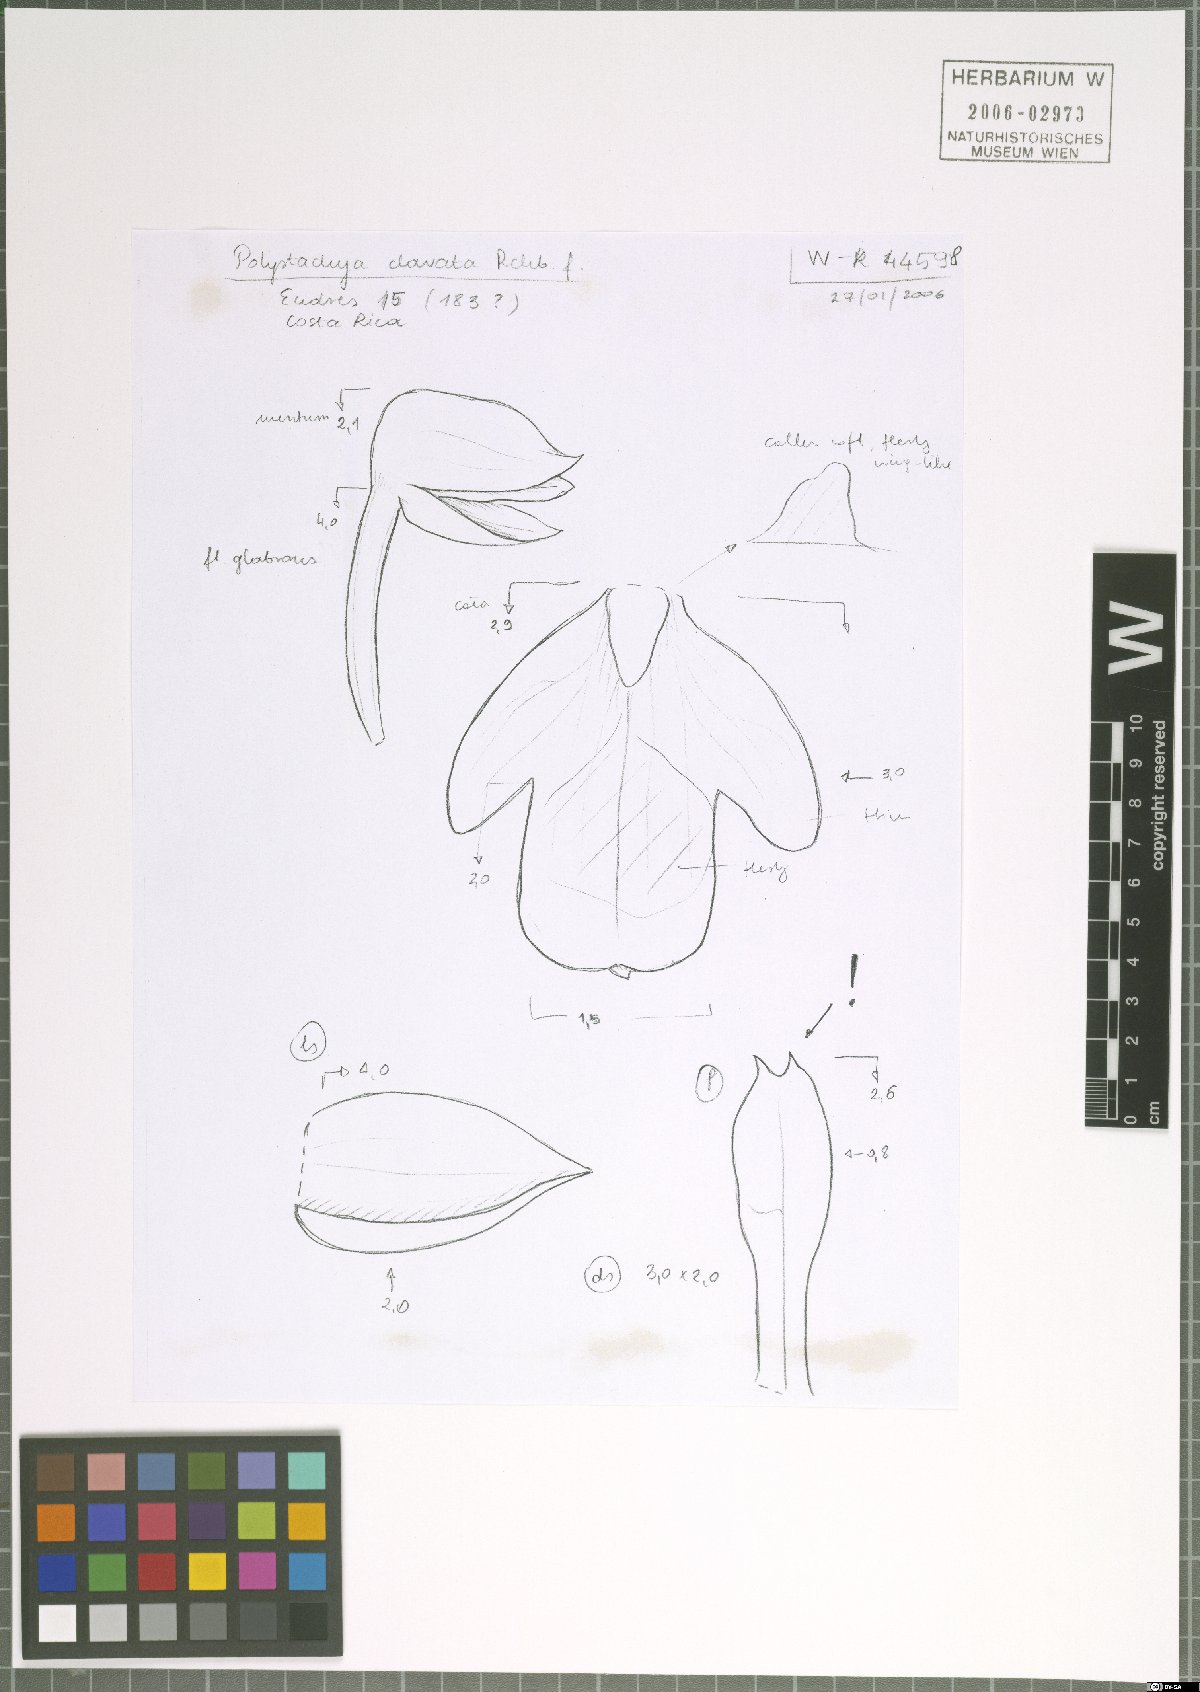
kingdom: Plantae
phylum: Tracheophyta
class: Liliopsida
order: Asparagales
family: Orchidaceae
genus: Polystachya
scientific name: Polystachya foliosa
